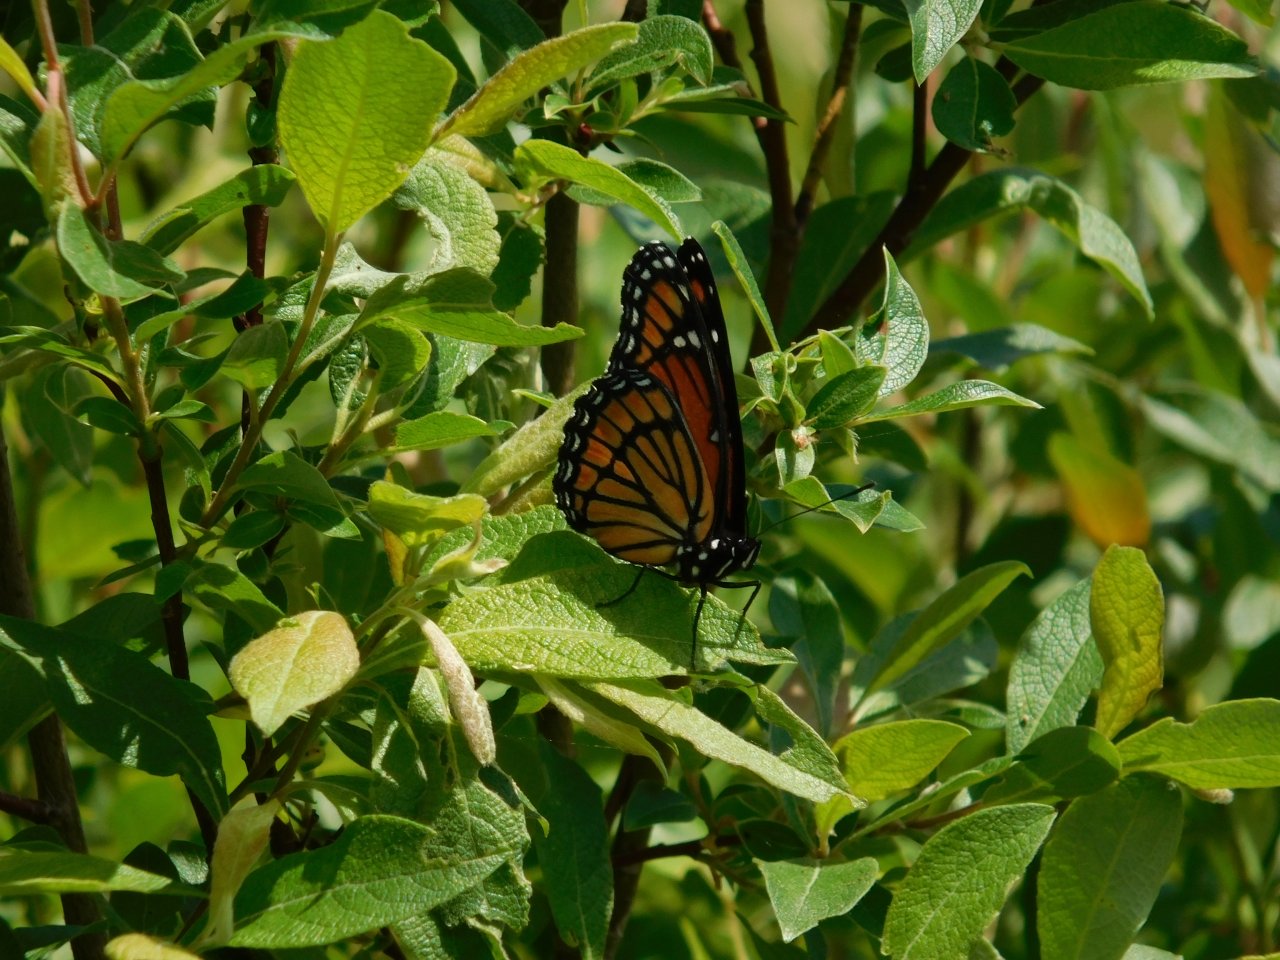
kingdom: Animalia
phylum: Arthropoda
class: Insecta
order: Lepidoptera
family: Nymphalidae
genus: Limenitis
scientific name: Limenitis archippus
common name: Viceroy
